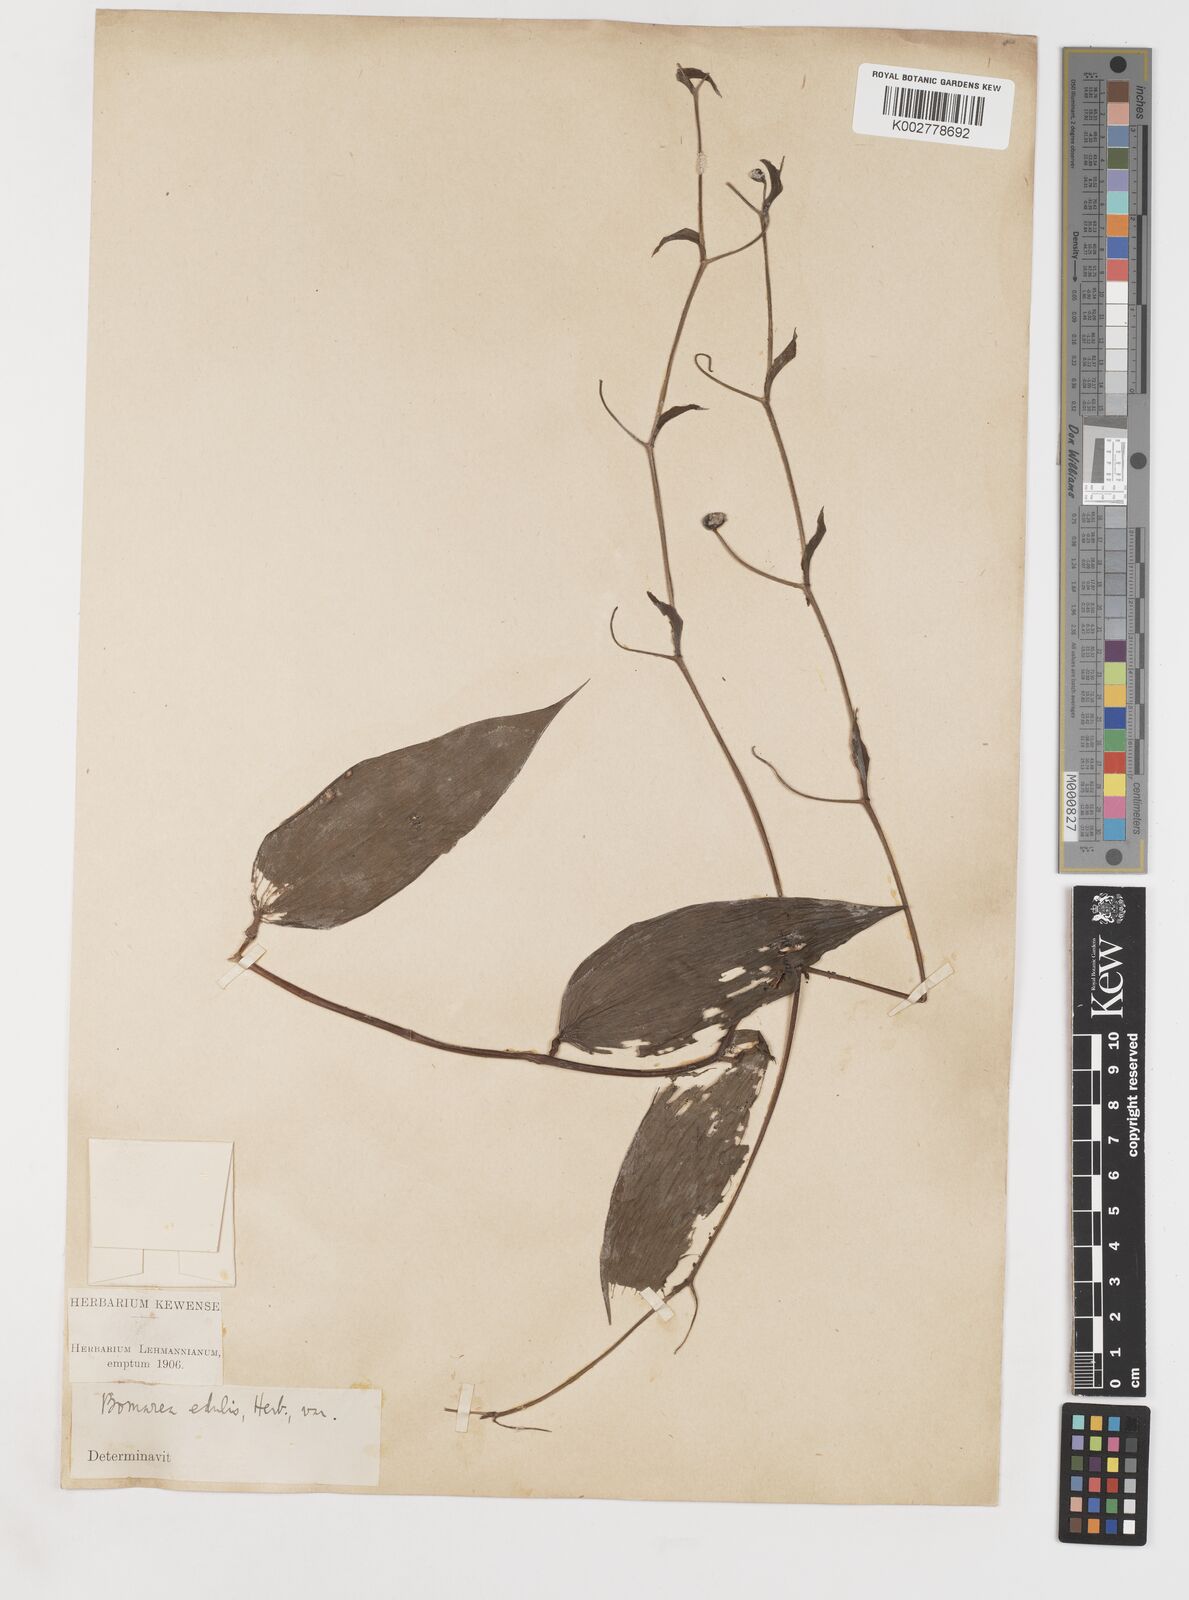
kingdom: Plantae
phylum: Tracheophyta
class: Liliopsida
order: Liliales
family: Alstroemeriaceae
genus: Bomarea
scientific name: Bomarea edulis
